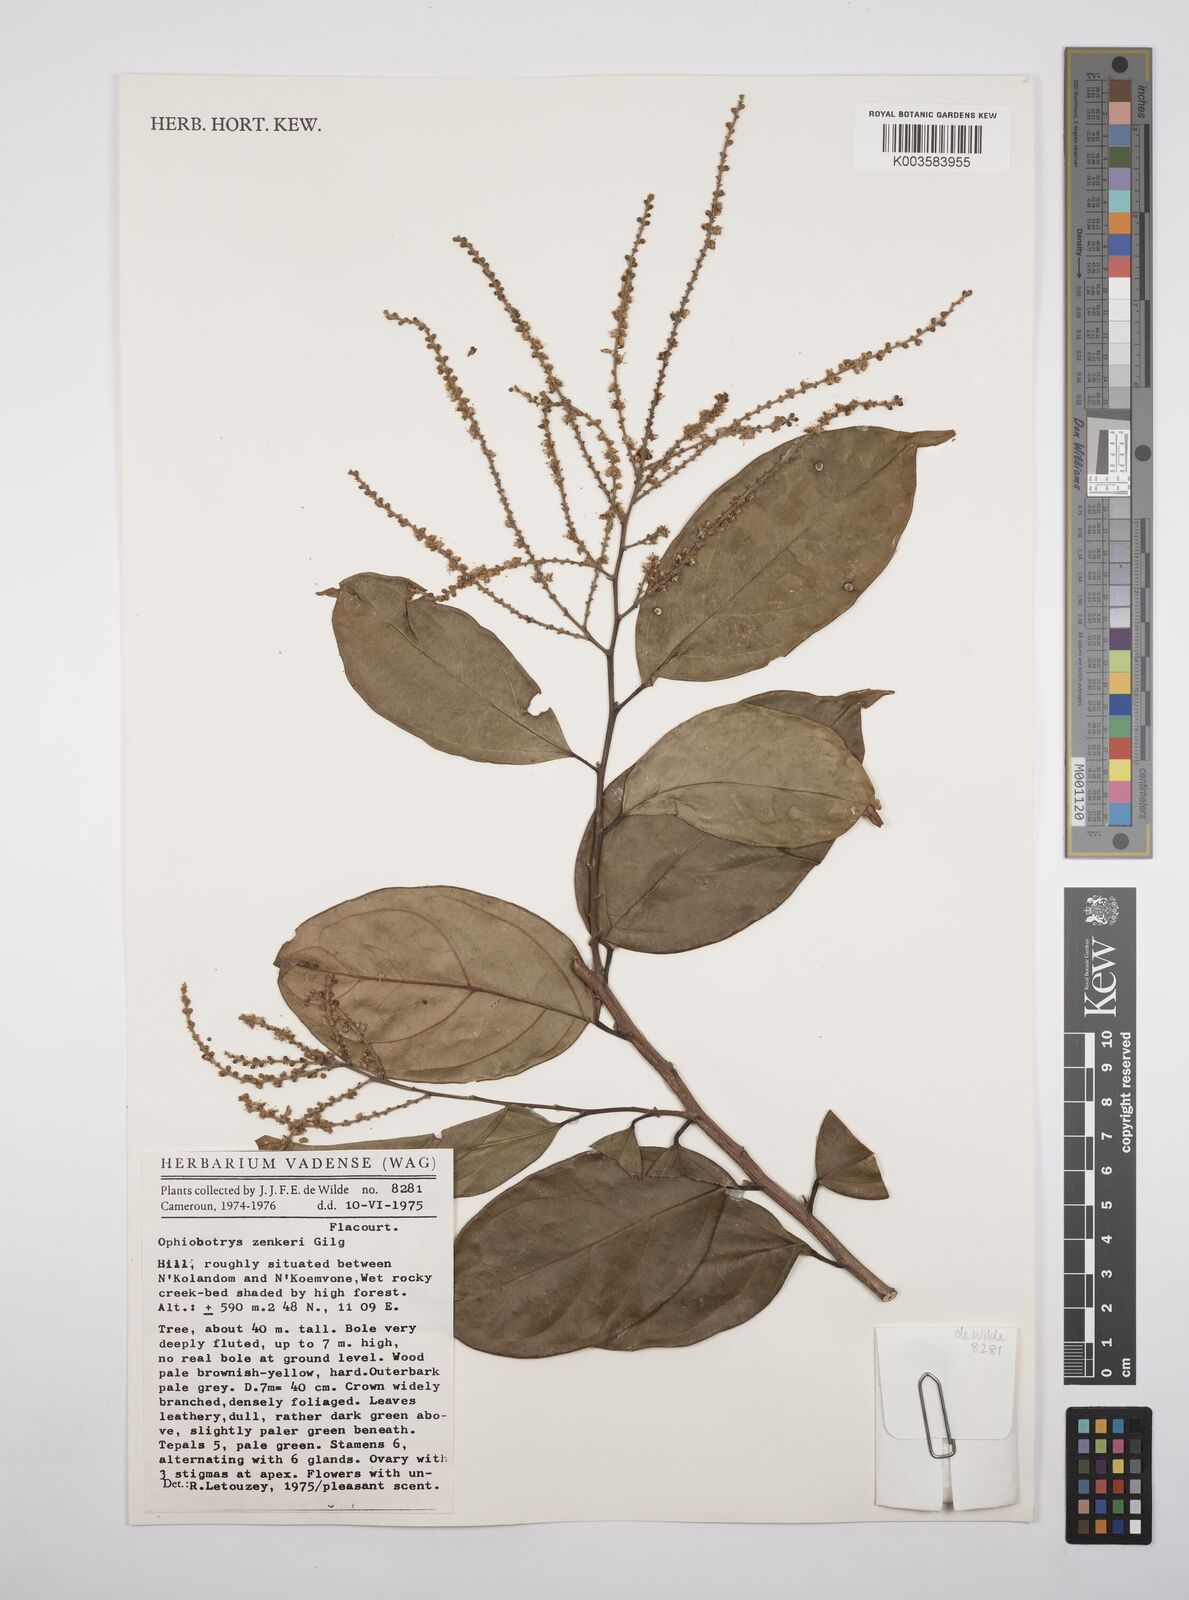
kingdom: Plantae
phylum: Tracheophyta
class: Magnoliopsida
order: Malpighiales
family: Salicaceae
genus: Ophiobotrys
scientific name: Ophiobotrys zenkeri
